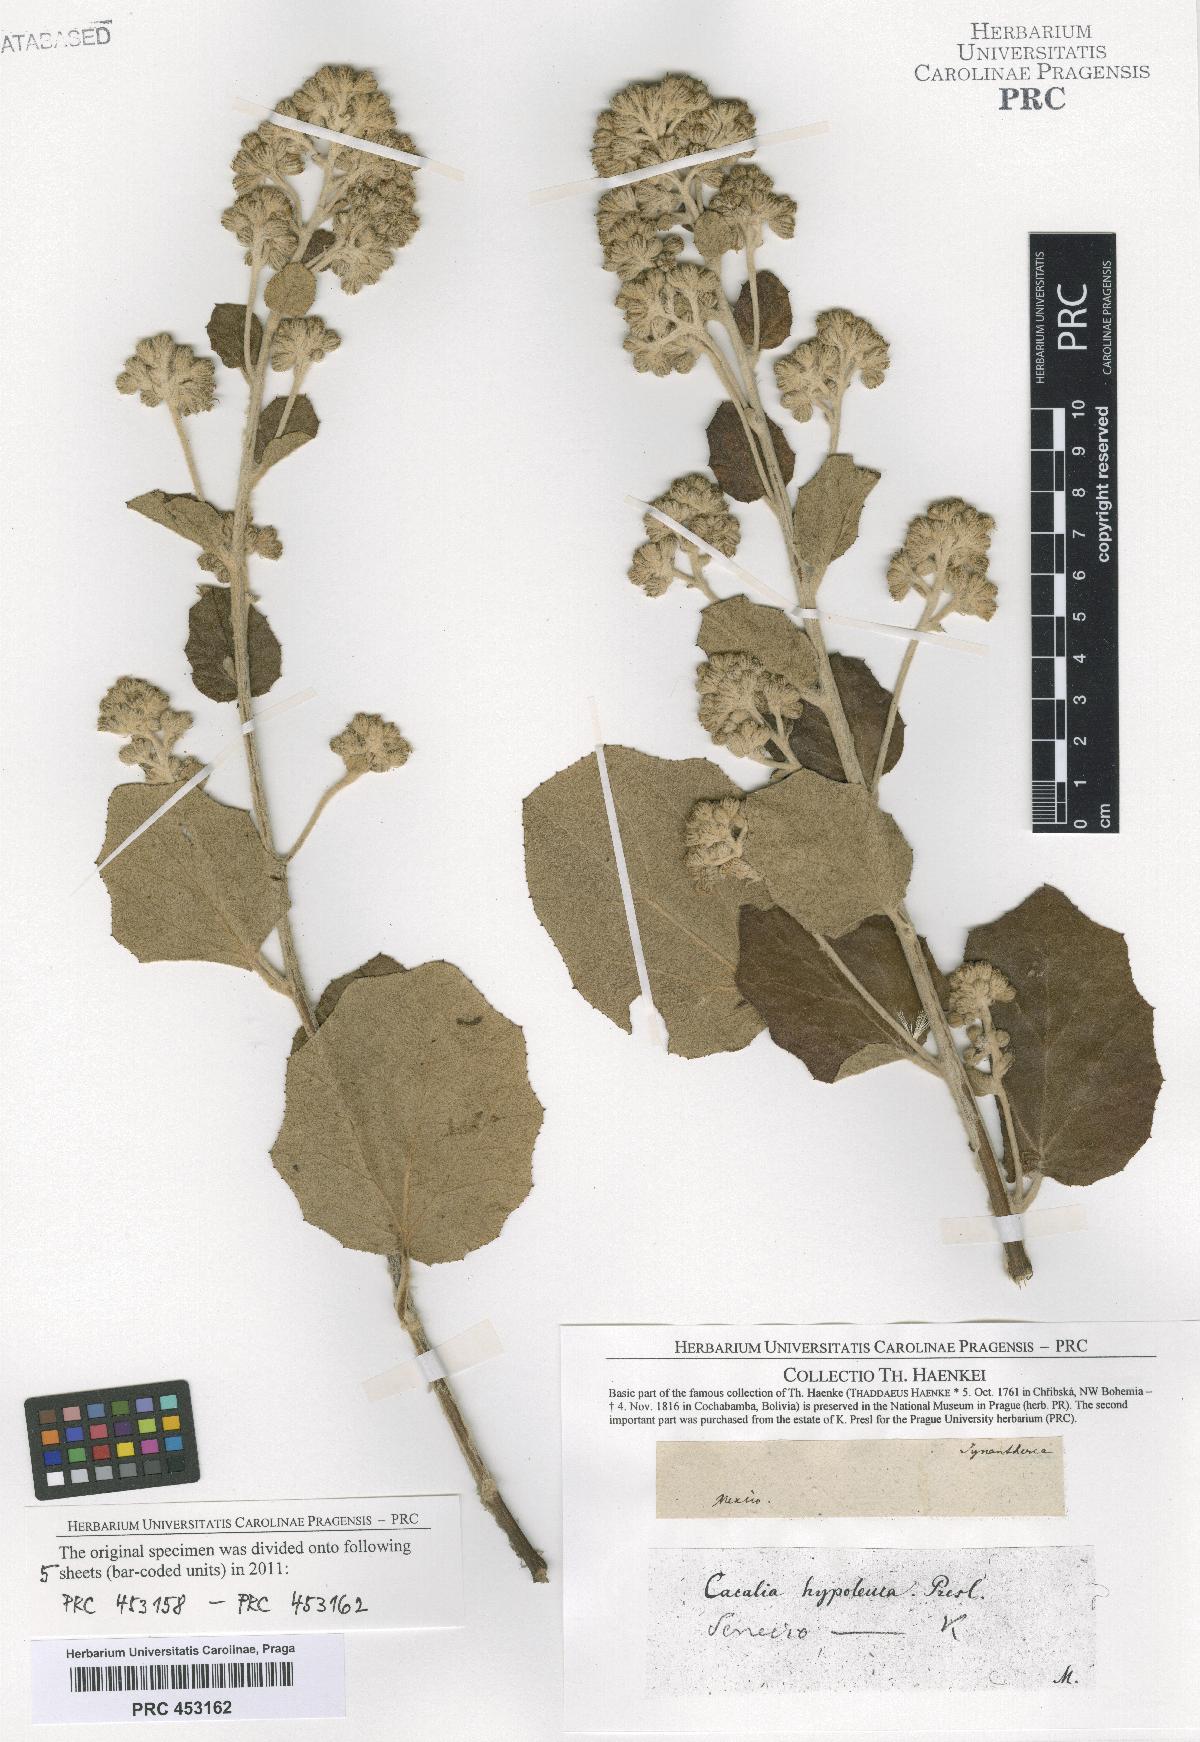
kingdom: Plantae
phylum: Tracheophyta
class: Magnoliopsida
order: Asterales
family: Asteraceae
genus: Senecio
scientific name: Senecio
